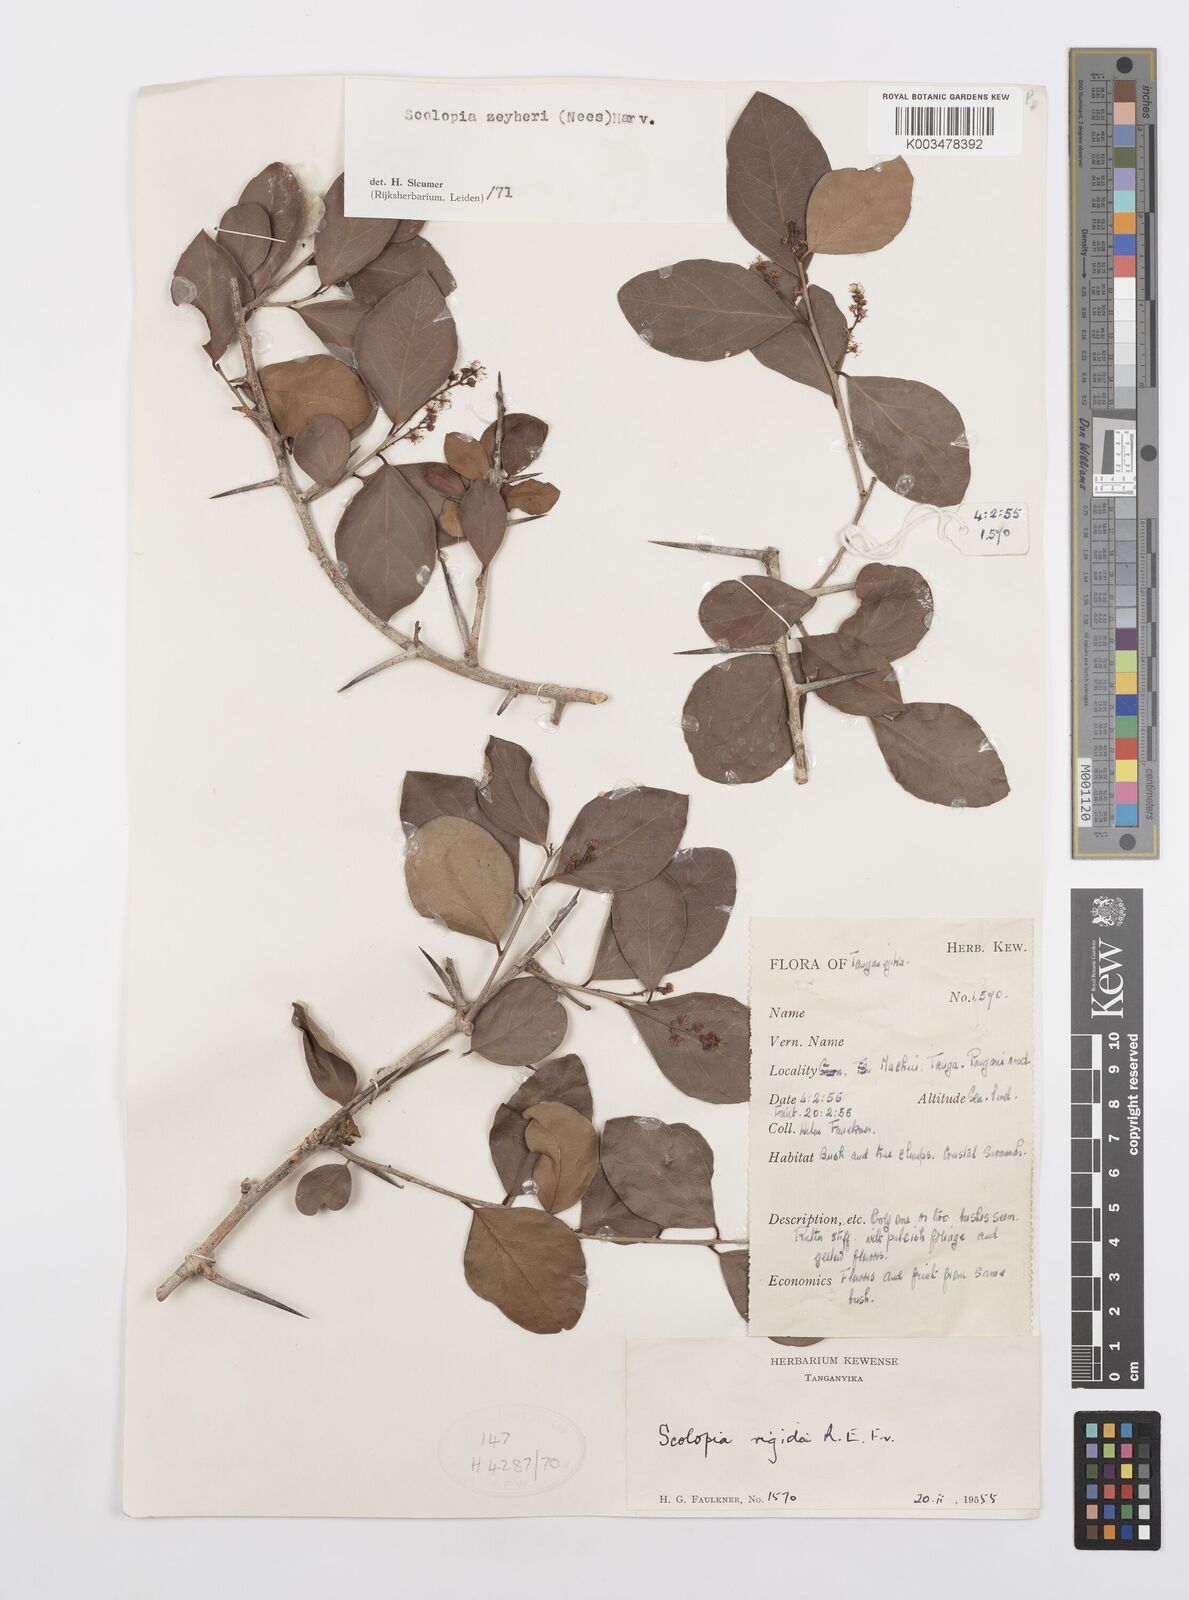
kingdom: Plantae
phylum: Tracheophyta
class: Magnoliopsida
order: Malpighiales
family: Salicaceae
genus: Scolopia
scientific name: Scolopia zeyheri
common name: Thorn pear
